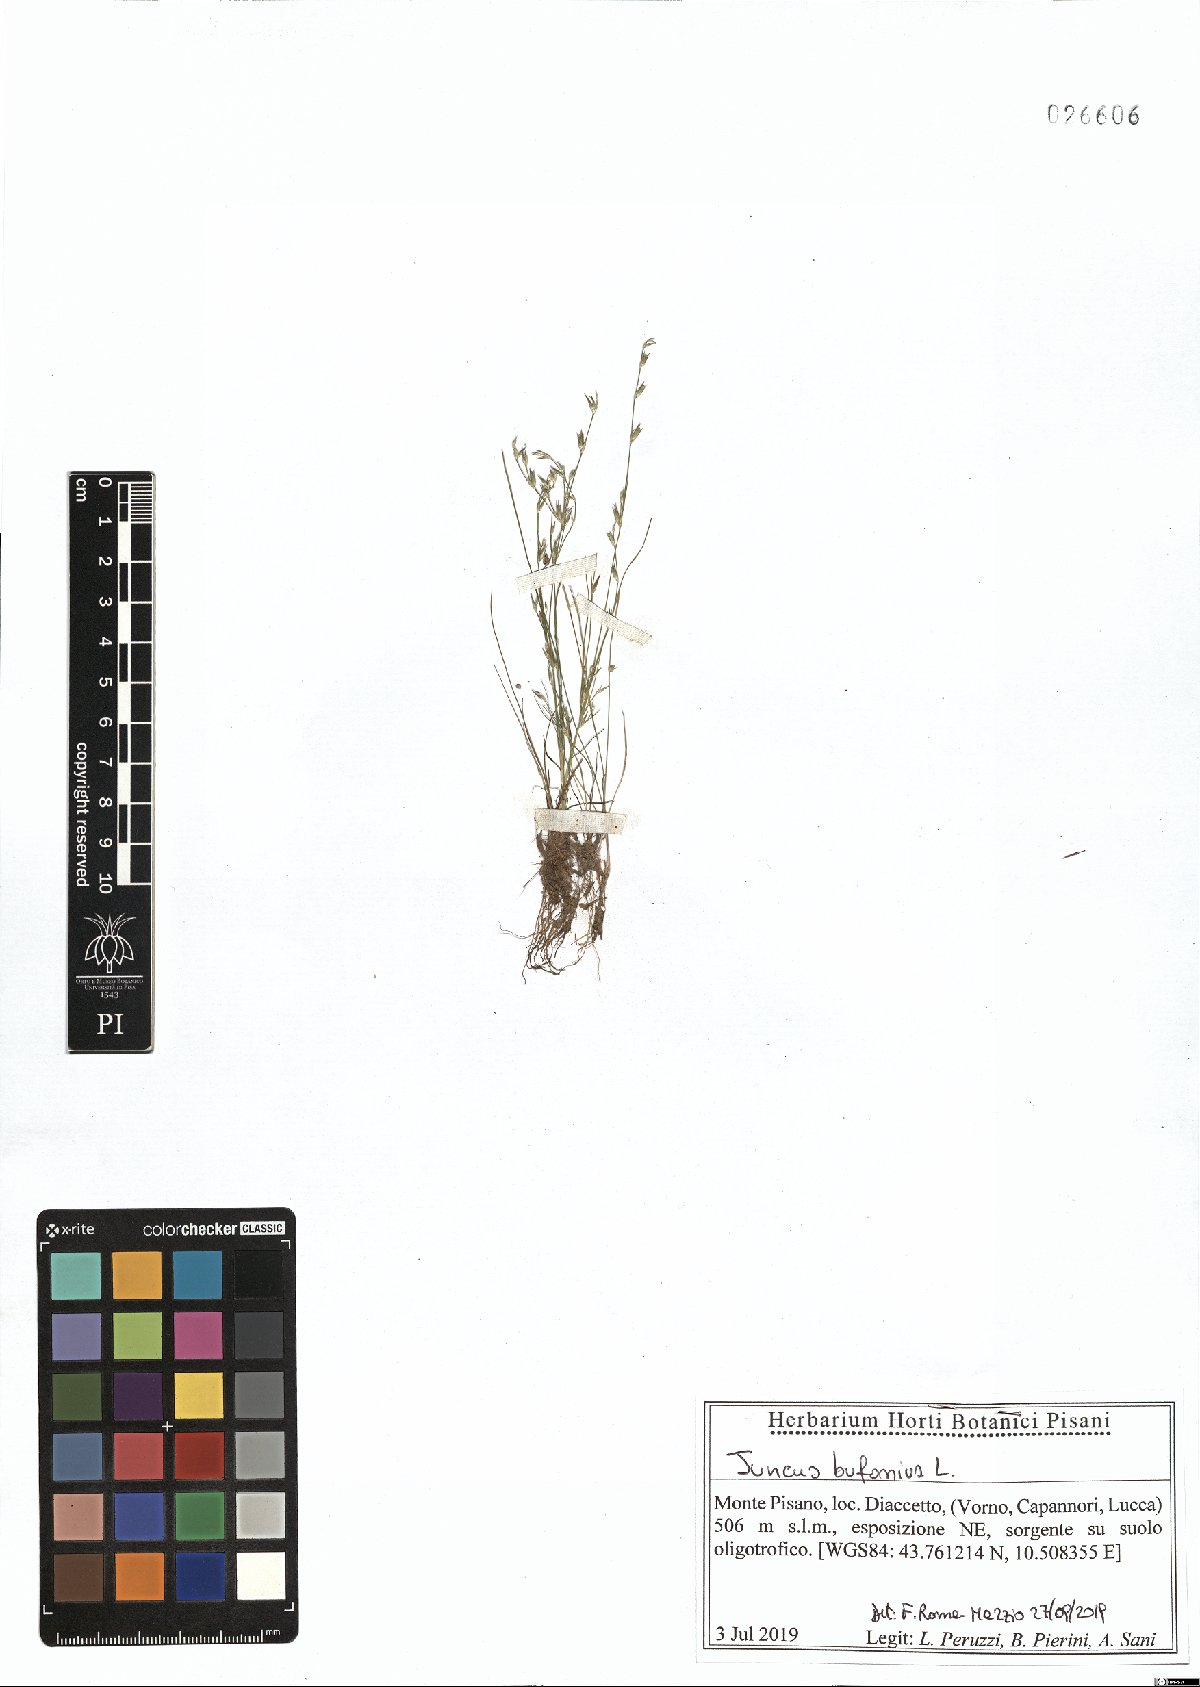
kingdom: Plantae
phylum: Tracheophyta
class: Liliopsida
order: Poales
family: Juncaceae
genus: Juncus
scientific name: Juncus bufonius
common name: Toad rush
